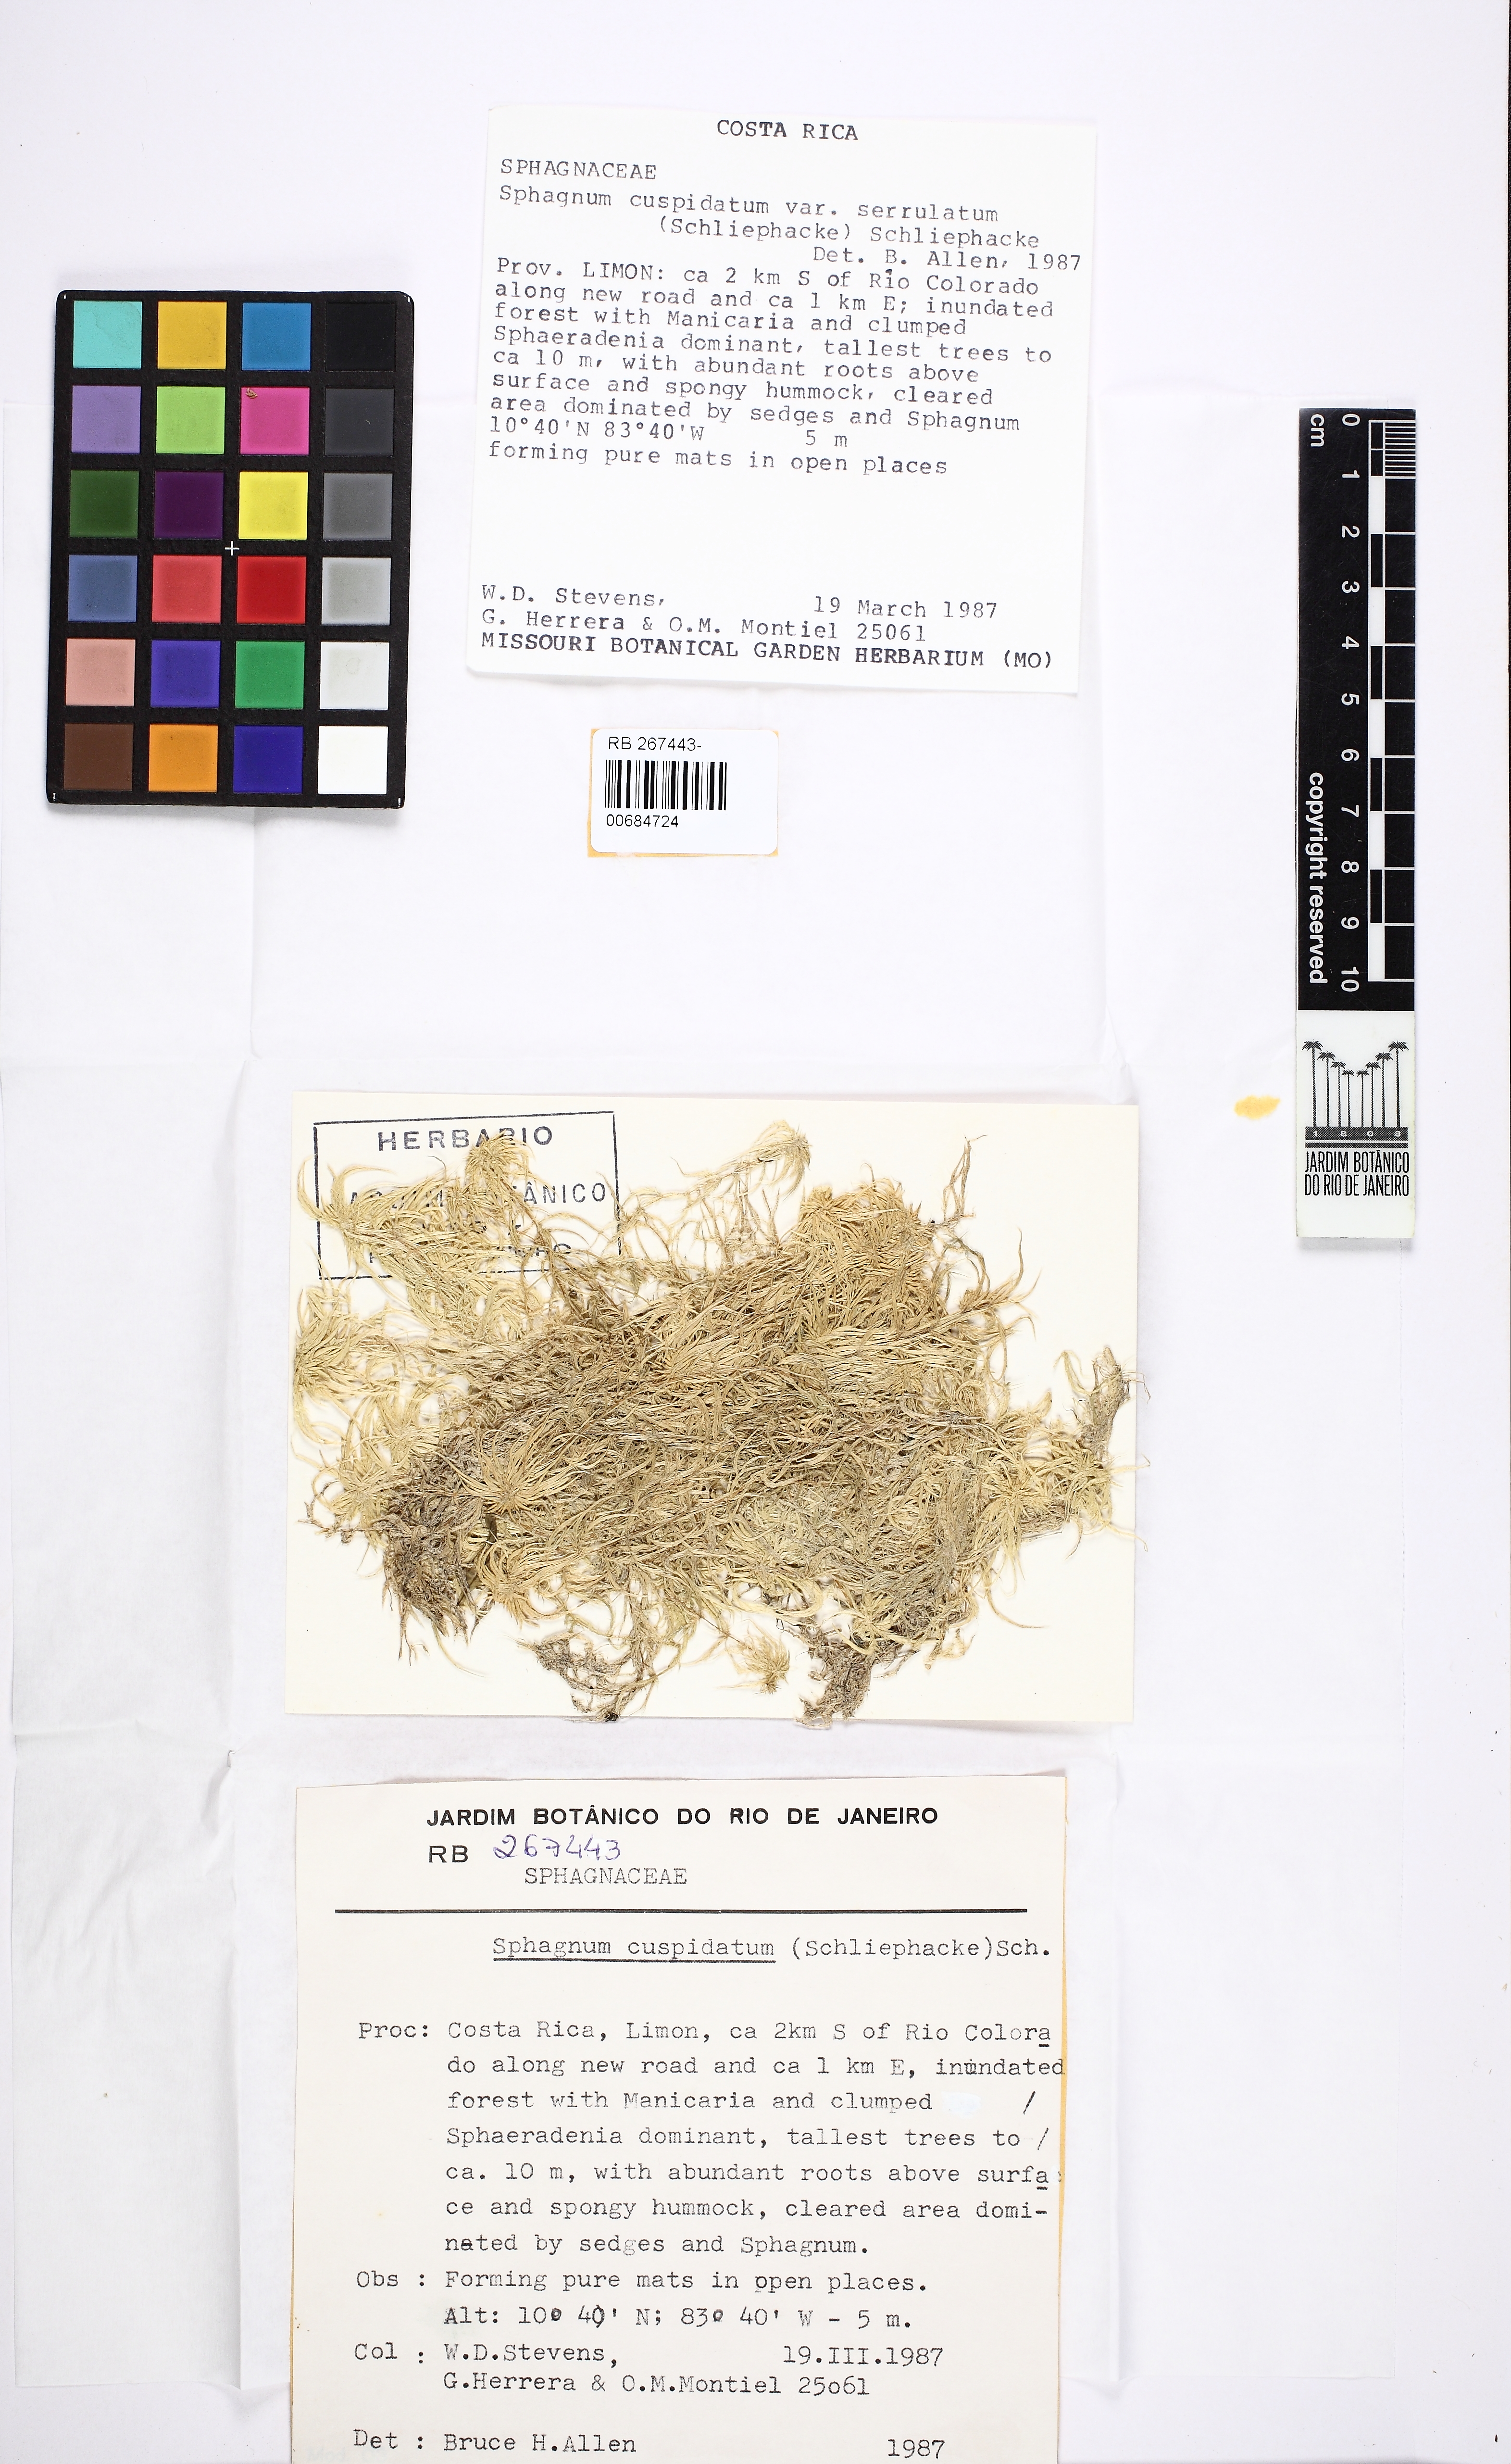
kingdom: Plantae
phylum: Bryophyta
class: Sphagnopsida
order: Sphagnales
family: Sphagnaceae
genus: Sphagnum
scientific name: Sphagnum cuspidatum
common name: Feathery peat moss
